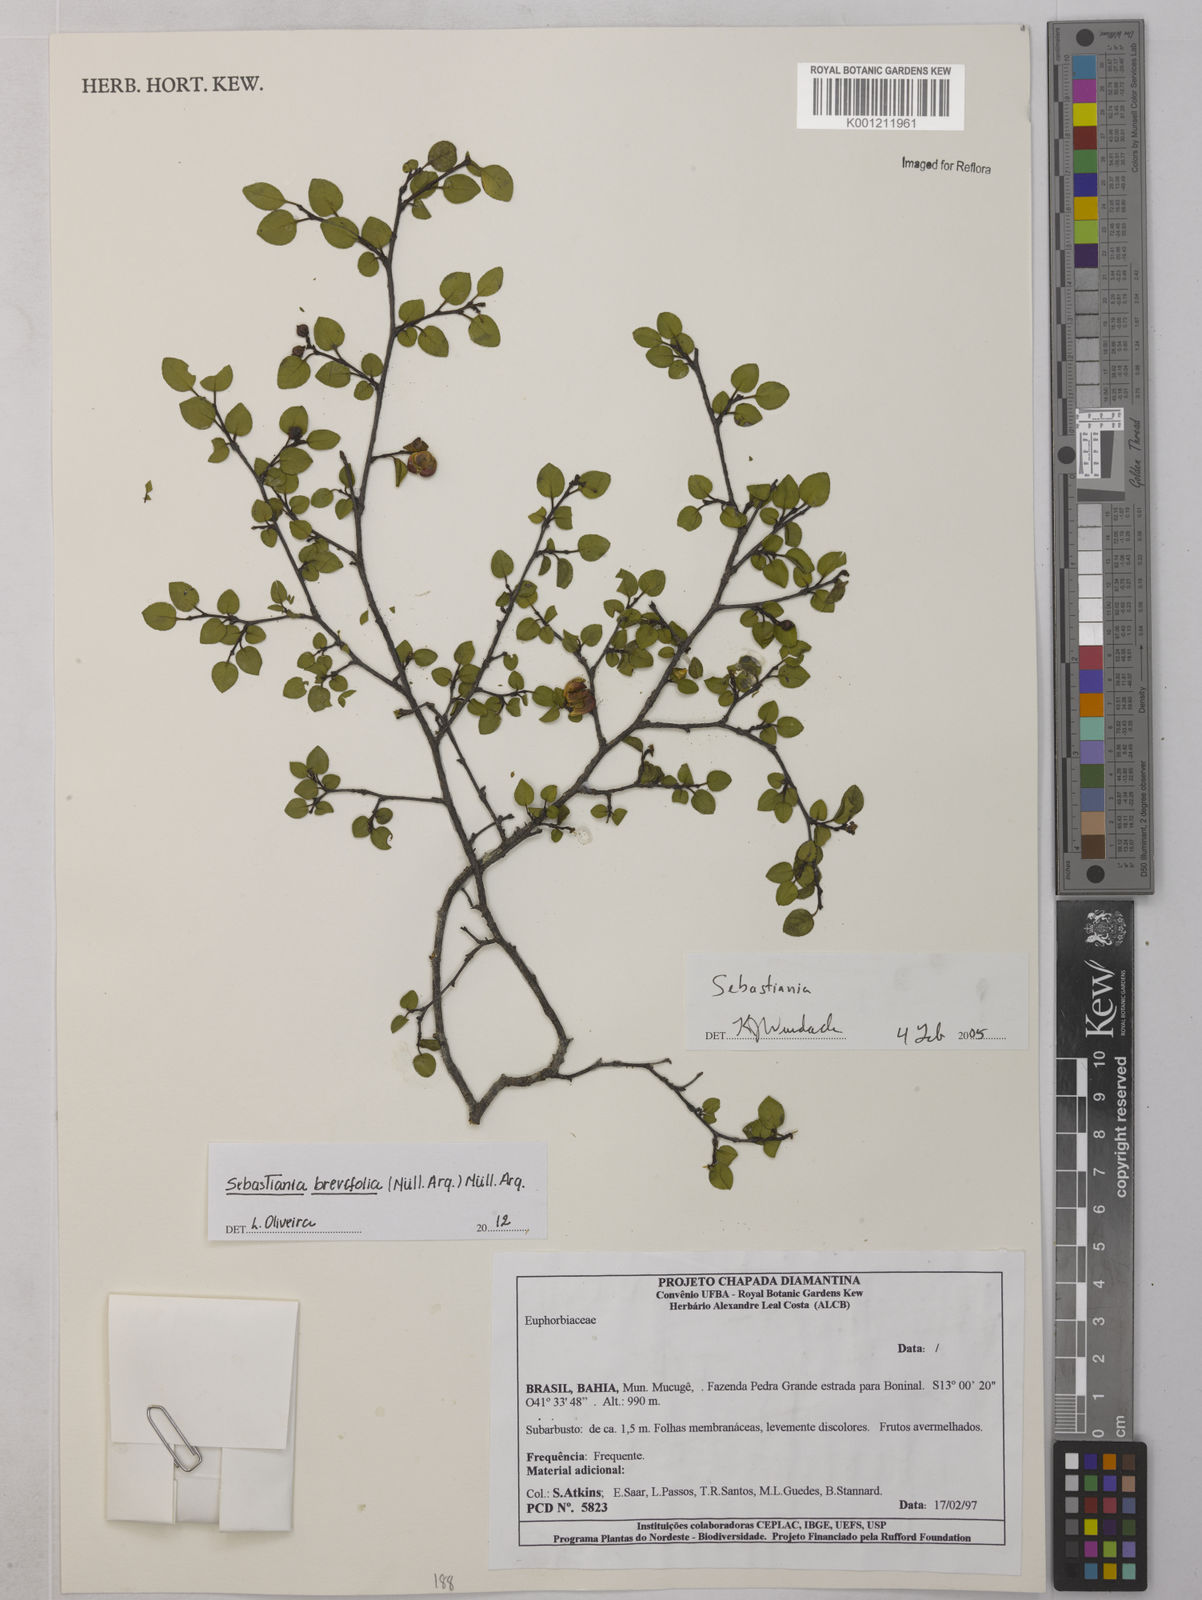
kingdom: Plantae
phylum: Tracheophyta
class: Magnoliopsida
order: Malpighiales
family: Euphorbiaceae
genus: Sebastiania
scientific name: Sebastiania
